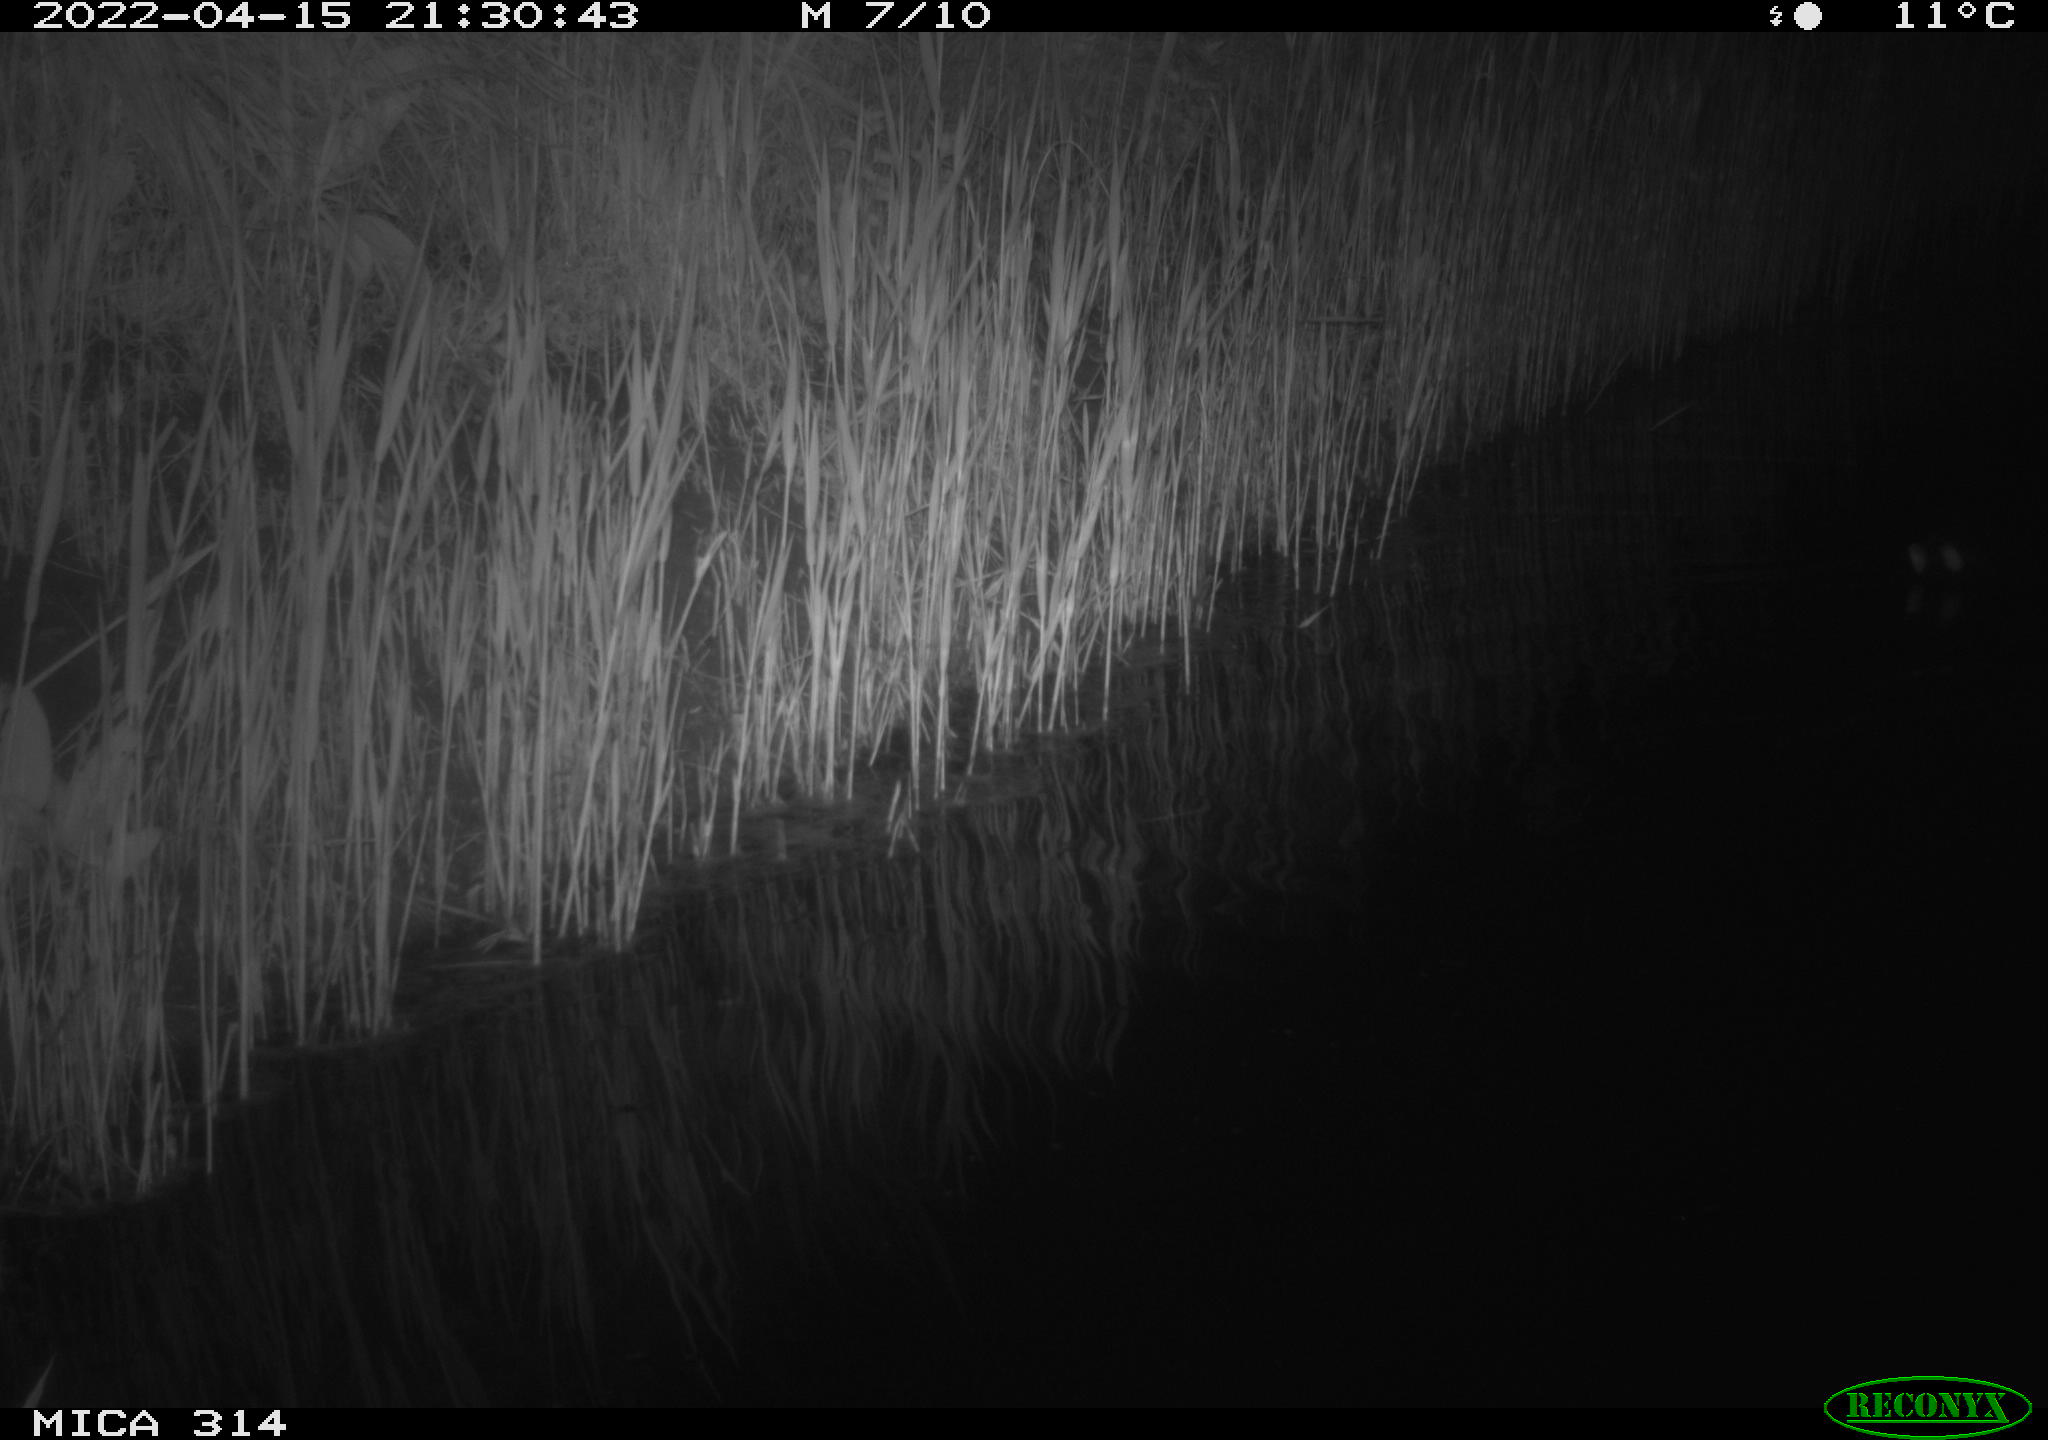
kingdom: Animalia
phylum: Chordata
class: Aves
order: Gruiformes
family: Rallidae
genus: Gallinula
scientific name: Gallinula chloropus
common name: Common moorhen
